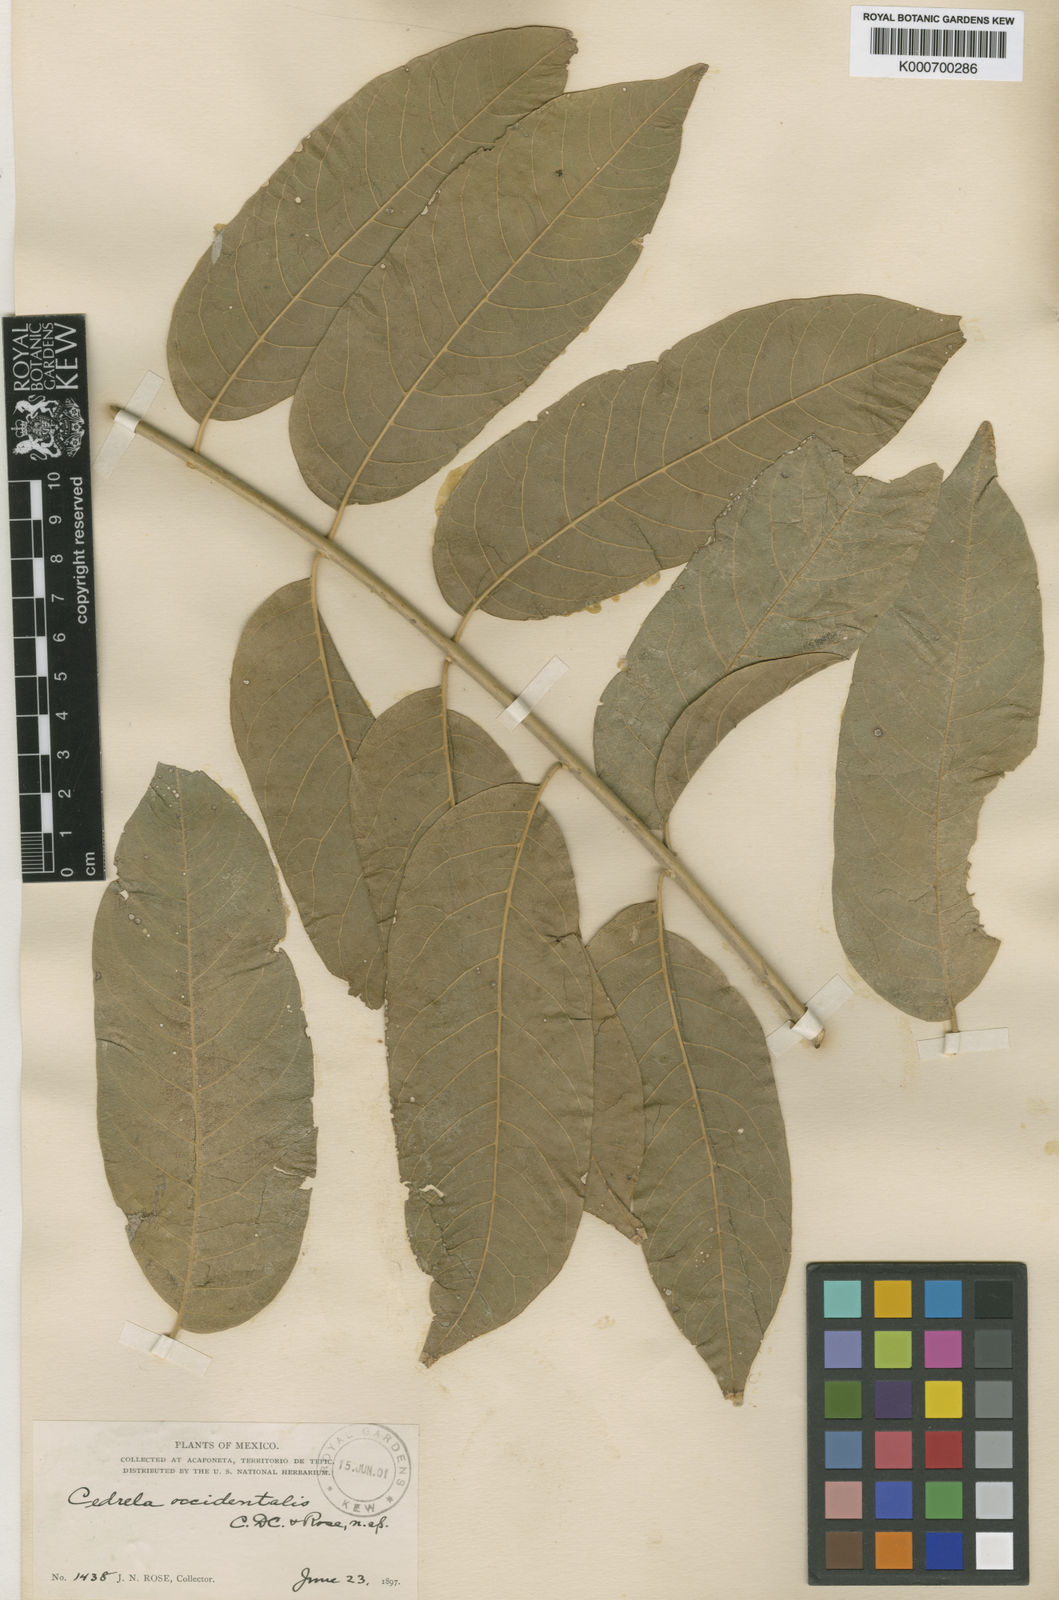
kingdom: Plantae
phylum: Tracheophyta
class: Magnoliopsida
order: Sapindales
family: Meliaceae
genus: Cedrela
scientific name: Cedrela odorata
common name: Red cedar
